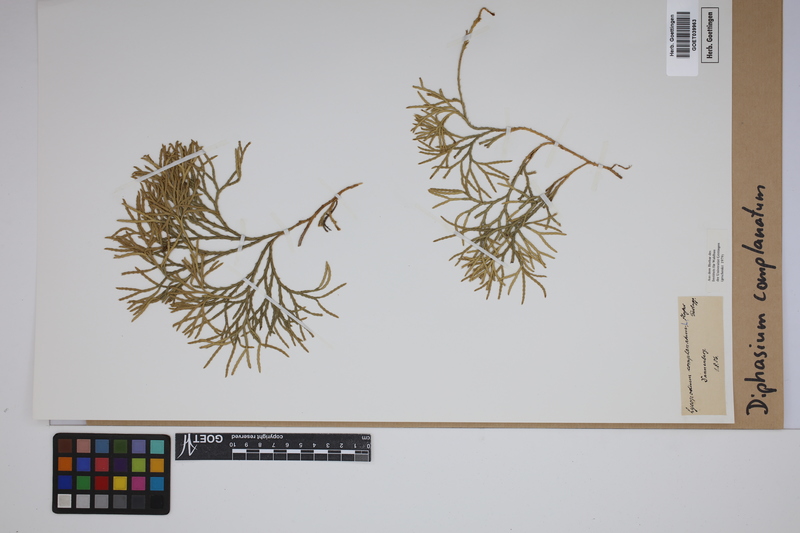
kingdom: Plantae
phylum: Tracheophyta
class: Lycopodiopsida
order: Lycopodiales
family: Lycopodiaceae
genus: Diphasiastrum
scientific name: Diphasiastrum complanatum
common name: Northern running-pine
